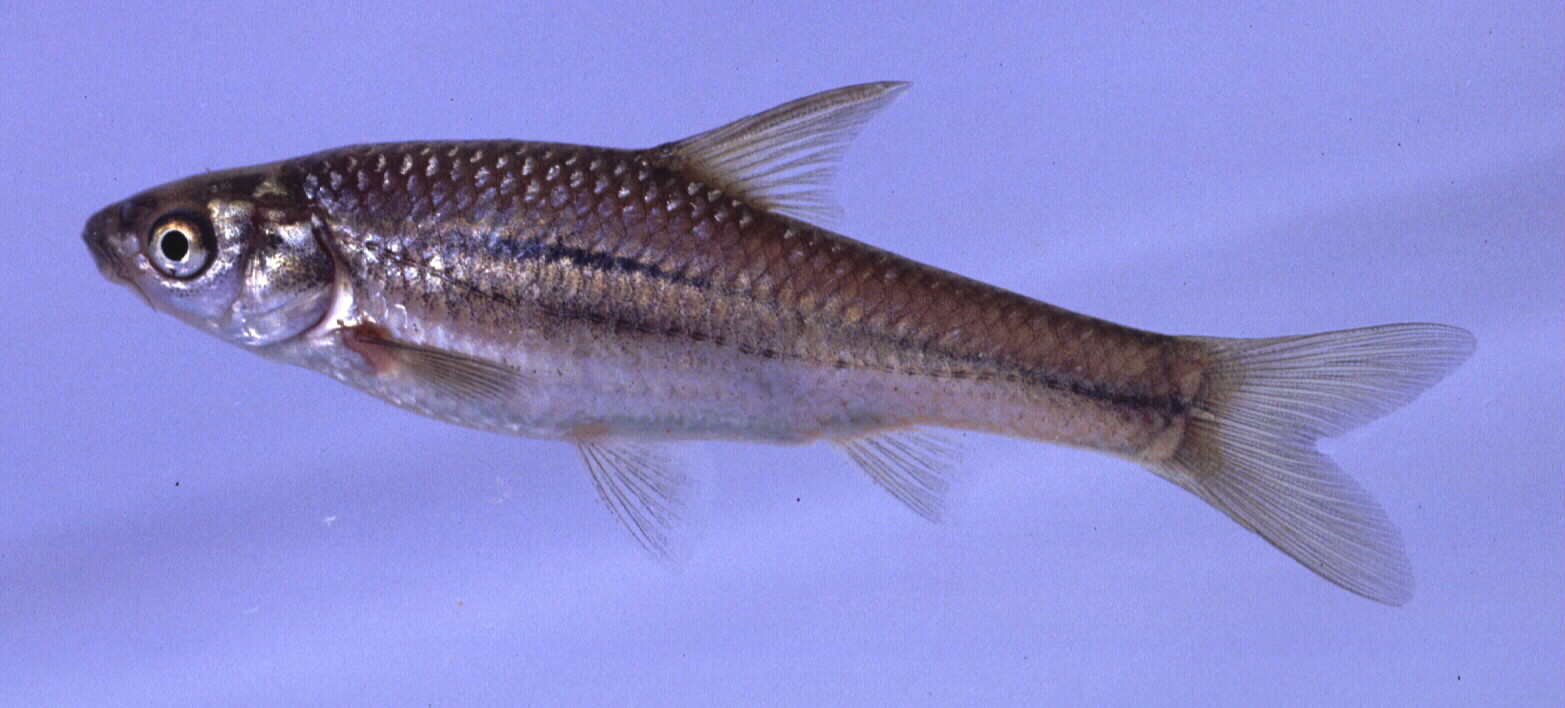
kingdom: Animalia
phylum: Chordata
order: Cypriniformes
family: Cyprinidae
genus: Enteromius
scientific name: Enteromius paludinosus
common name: Straightfin barb
